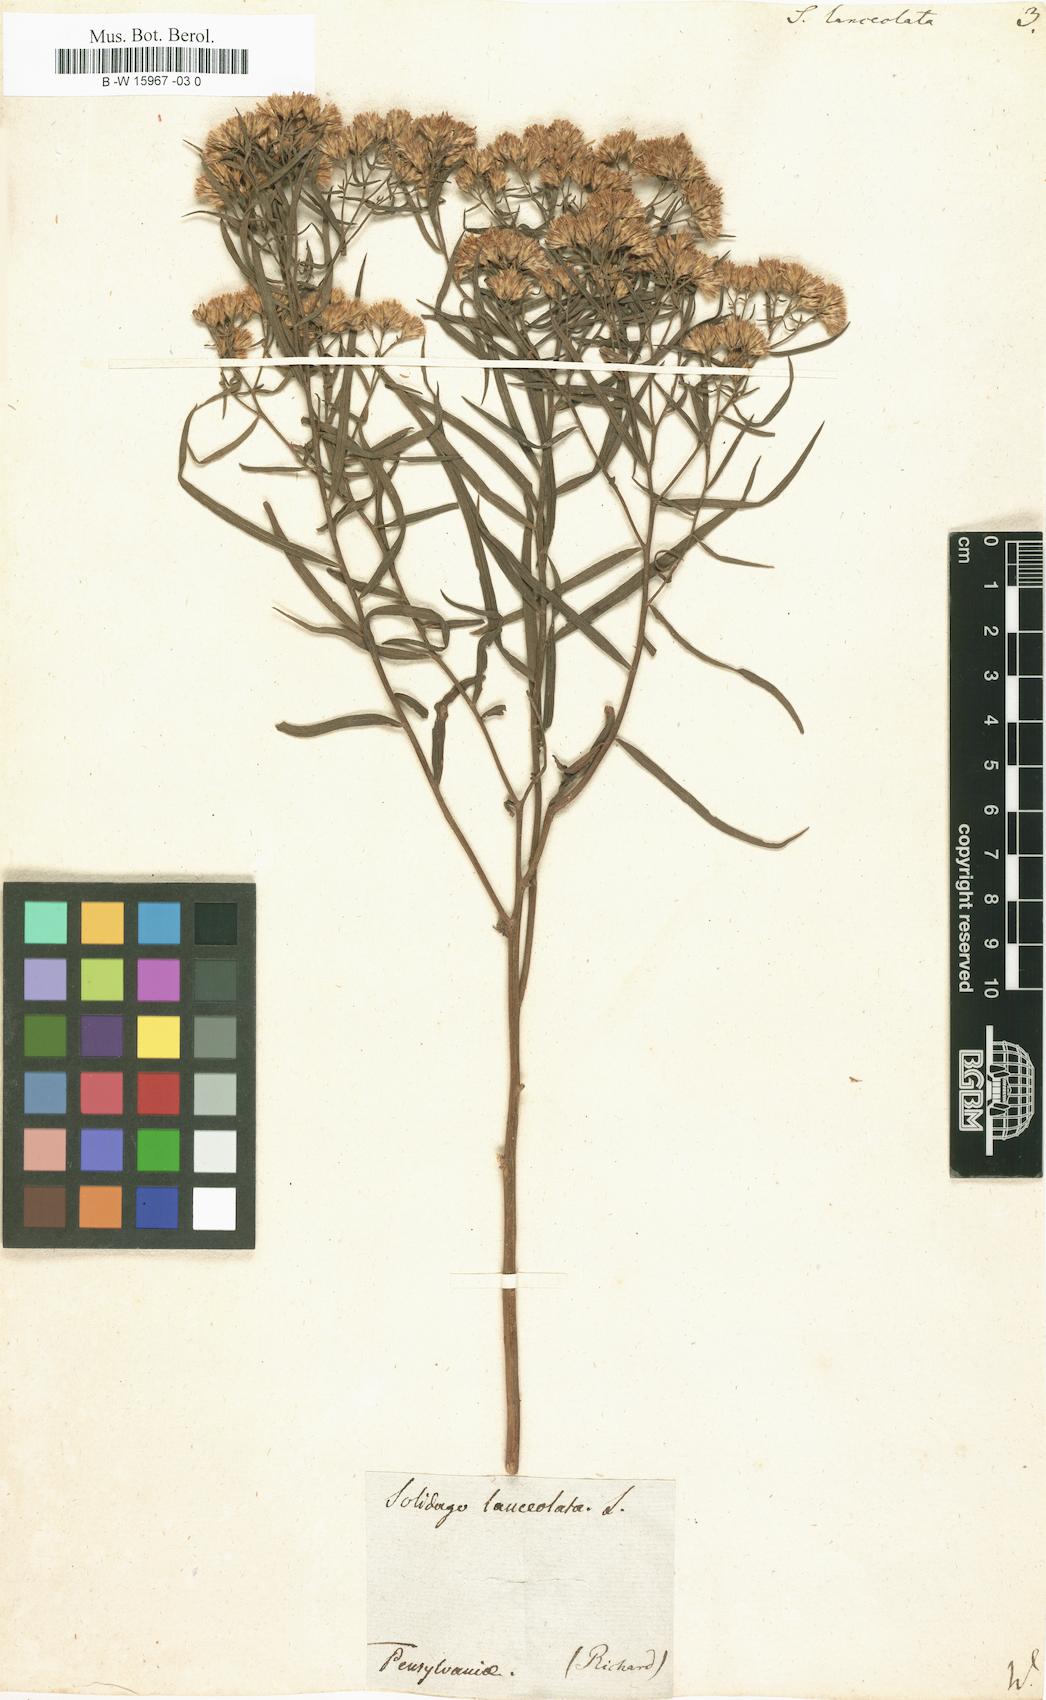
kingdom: Plantae
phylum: Tracheophyta
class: Magnoliopsida
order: Asterales
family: Asteraceae
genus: Euthamia
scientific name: Euthamia lanceolata
